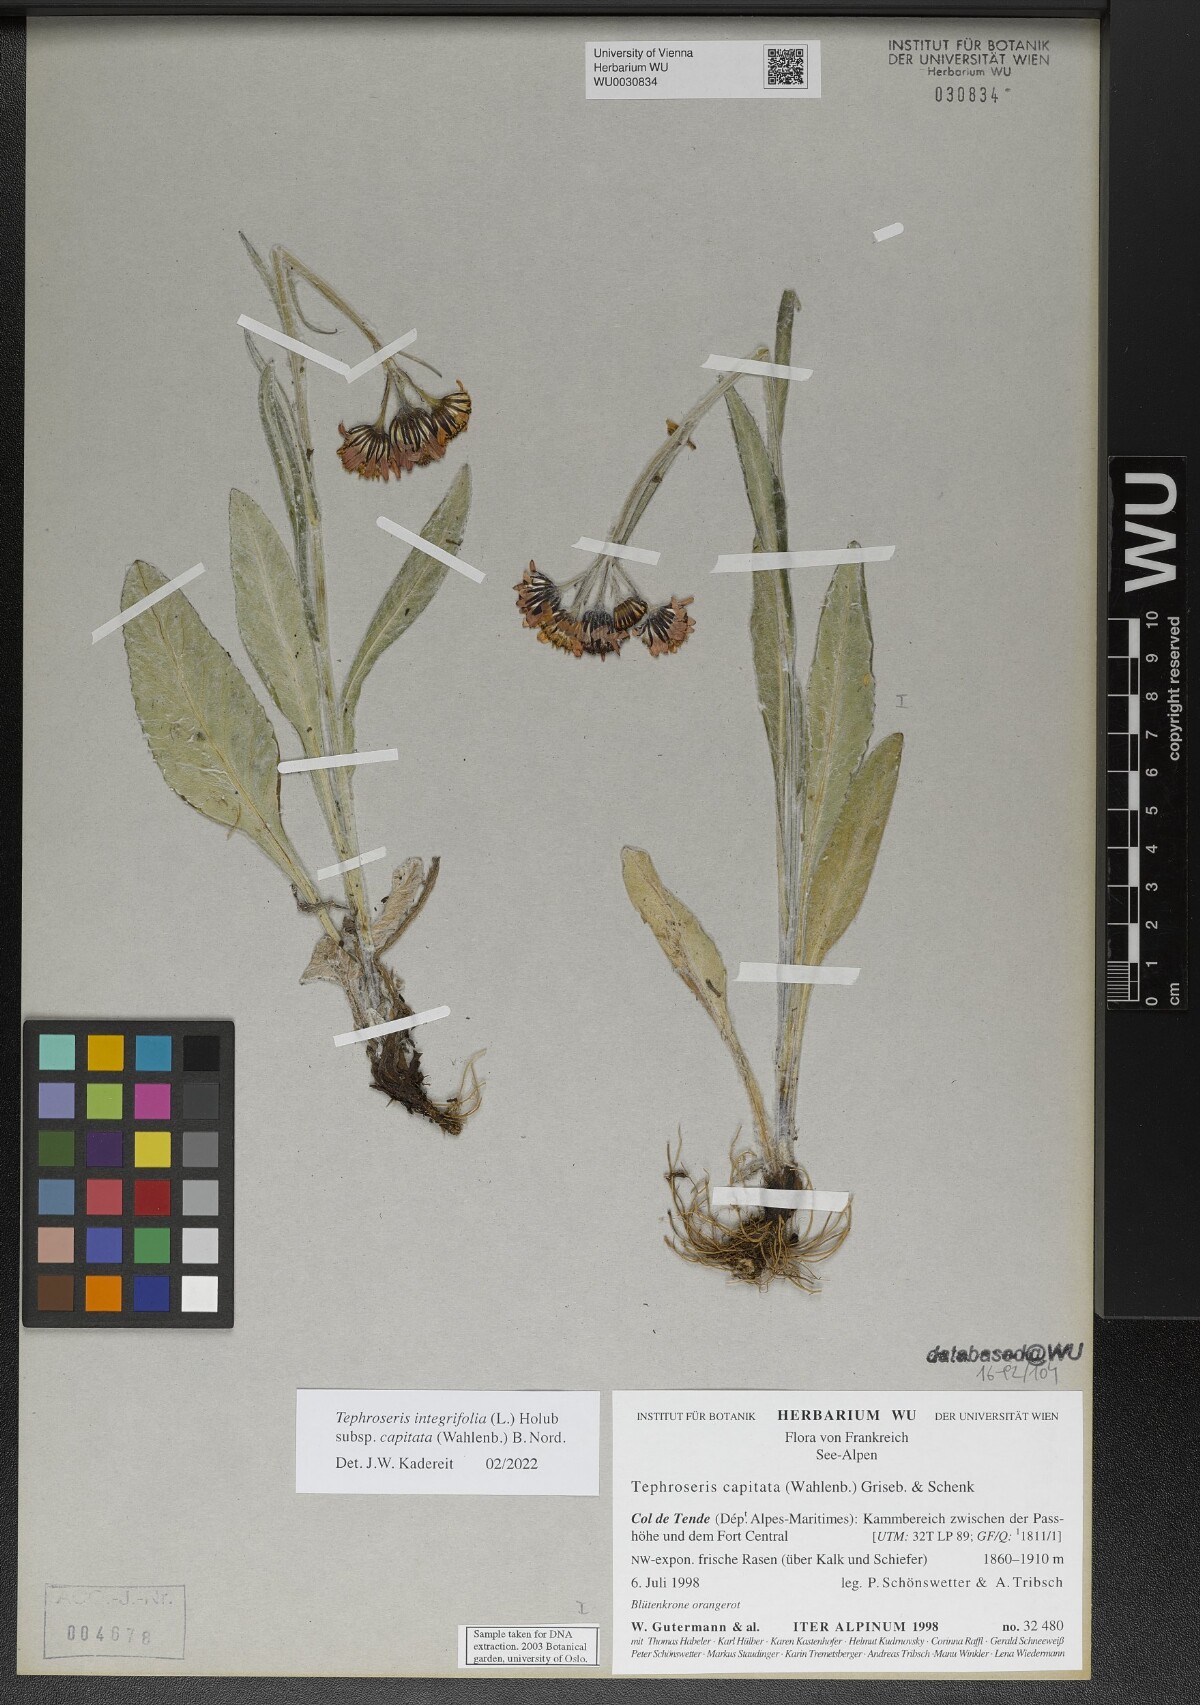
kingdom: Plantae
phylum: Tracheophyta
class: Magnoliopsida
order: Asterales
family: Asteraceae
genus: Tephroseris
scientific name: Tephroseris integrifolia
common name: Field fleawort
